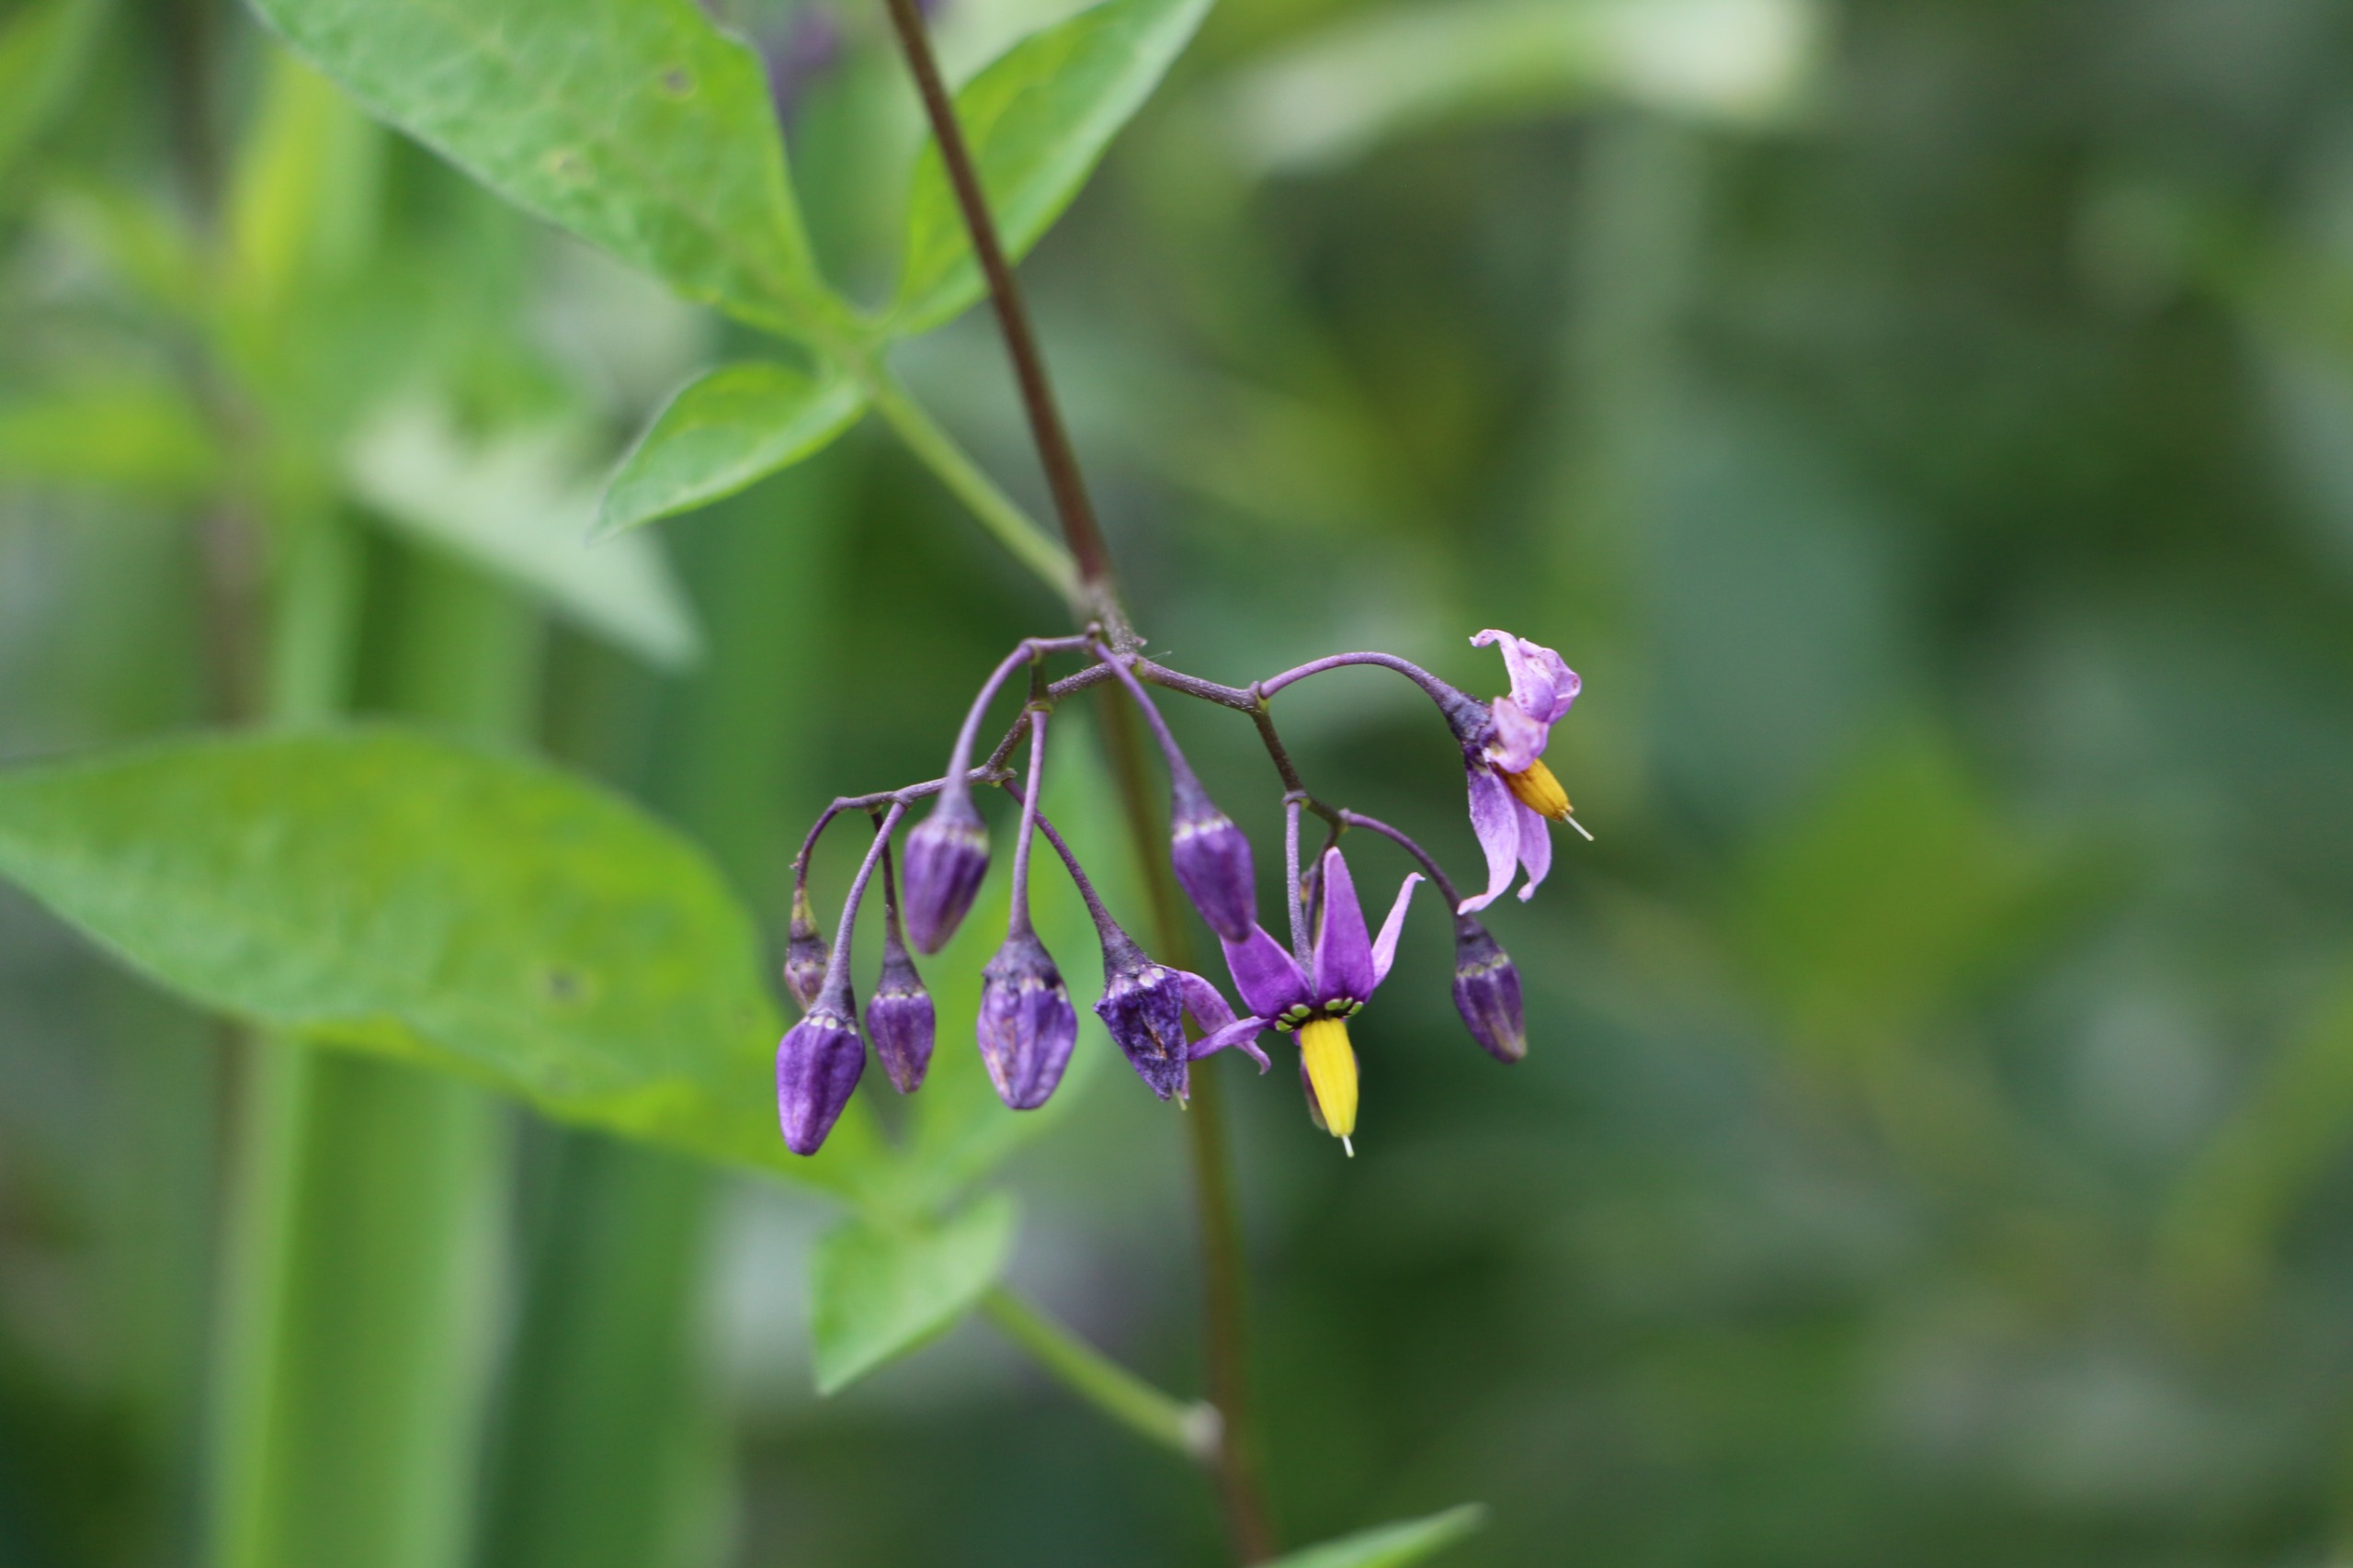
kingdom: Plantae
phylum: Tracheophyta
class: Magnoliopsida
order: Solanales
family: Solanaceae
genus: Solanum
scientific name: Solanum dulcamara
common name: Bittersød natskygge
